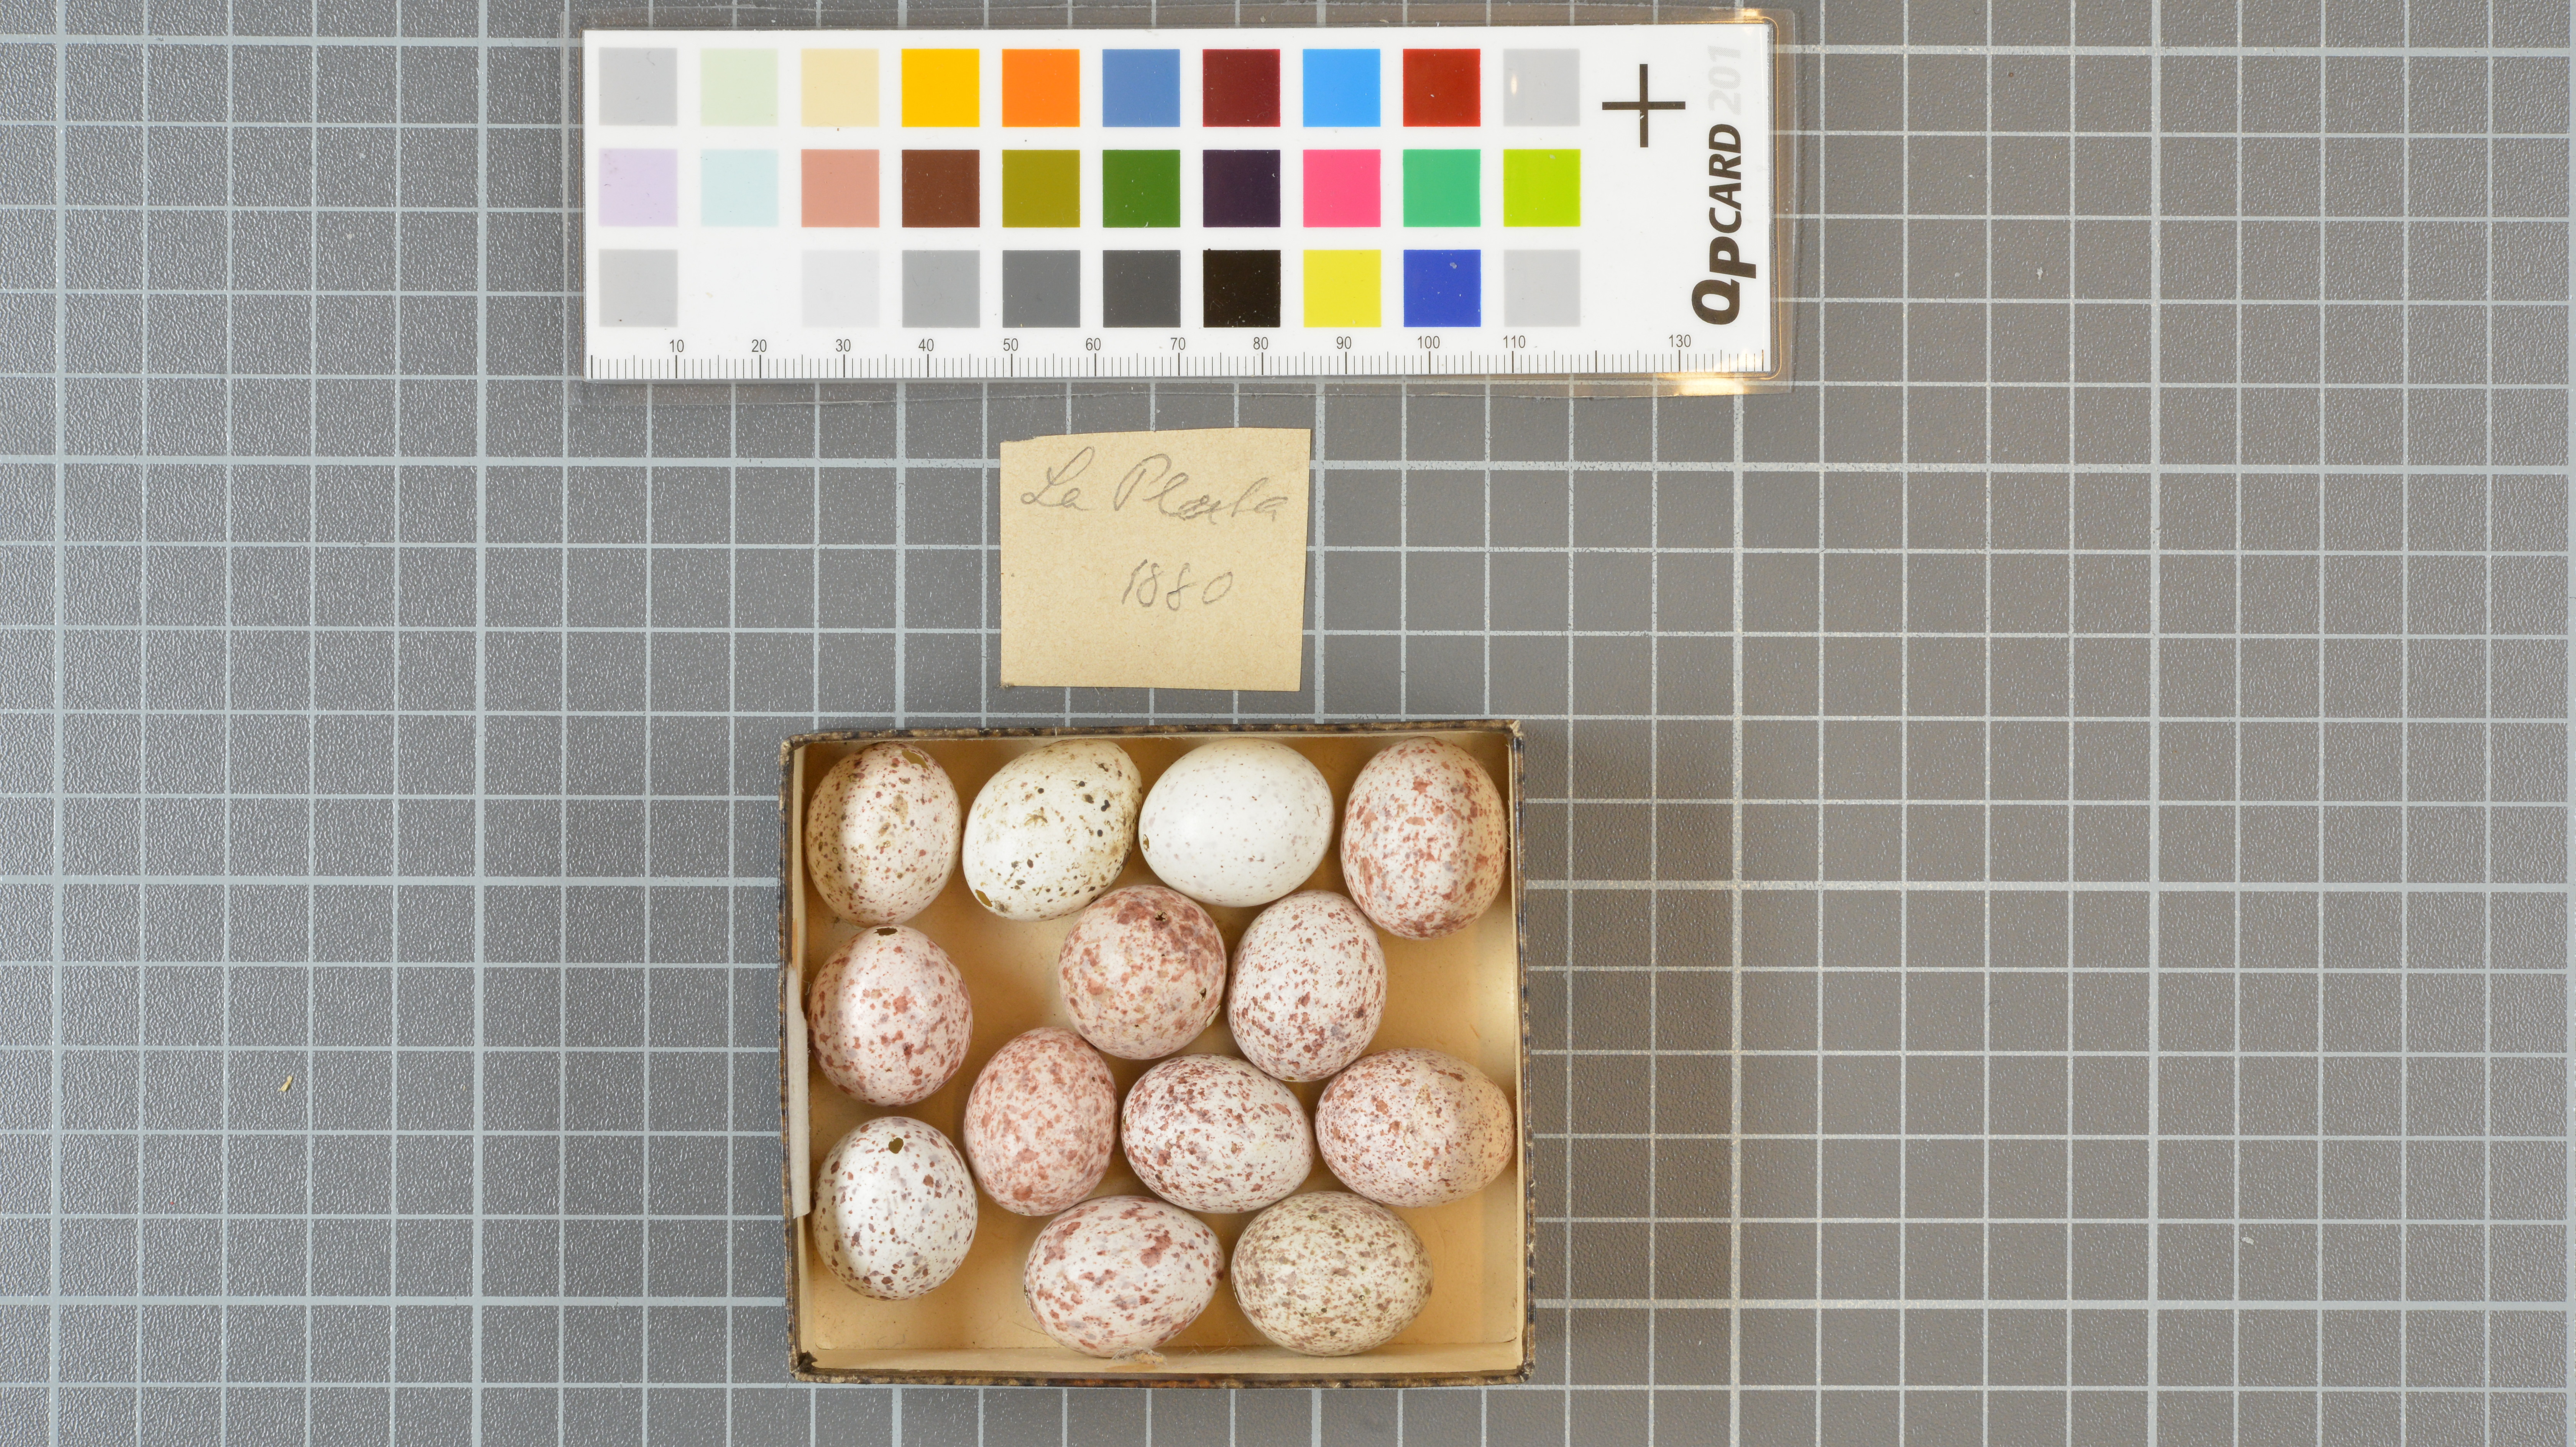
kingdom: Animalia
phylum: Chordata
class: Aves
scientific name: Aves
